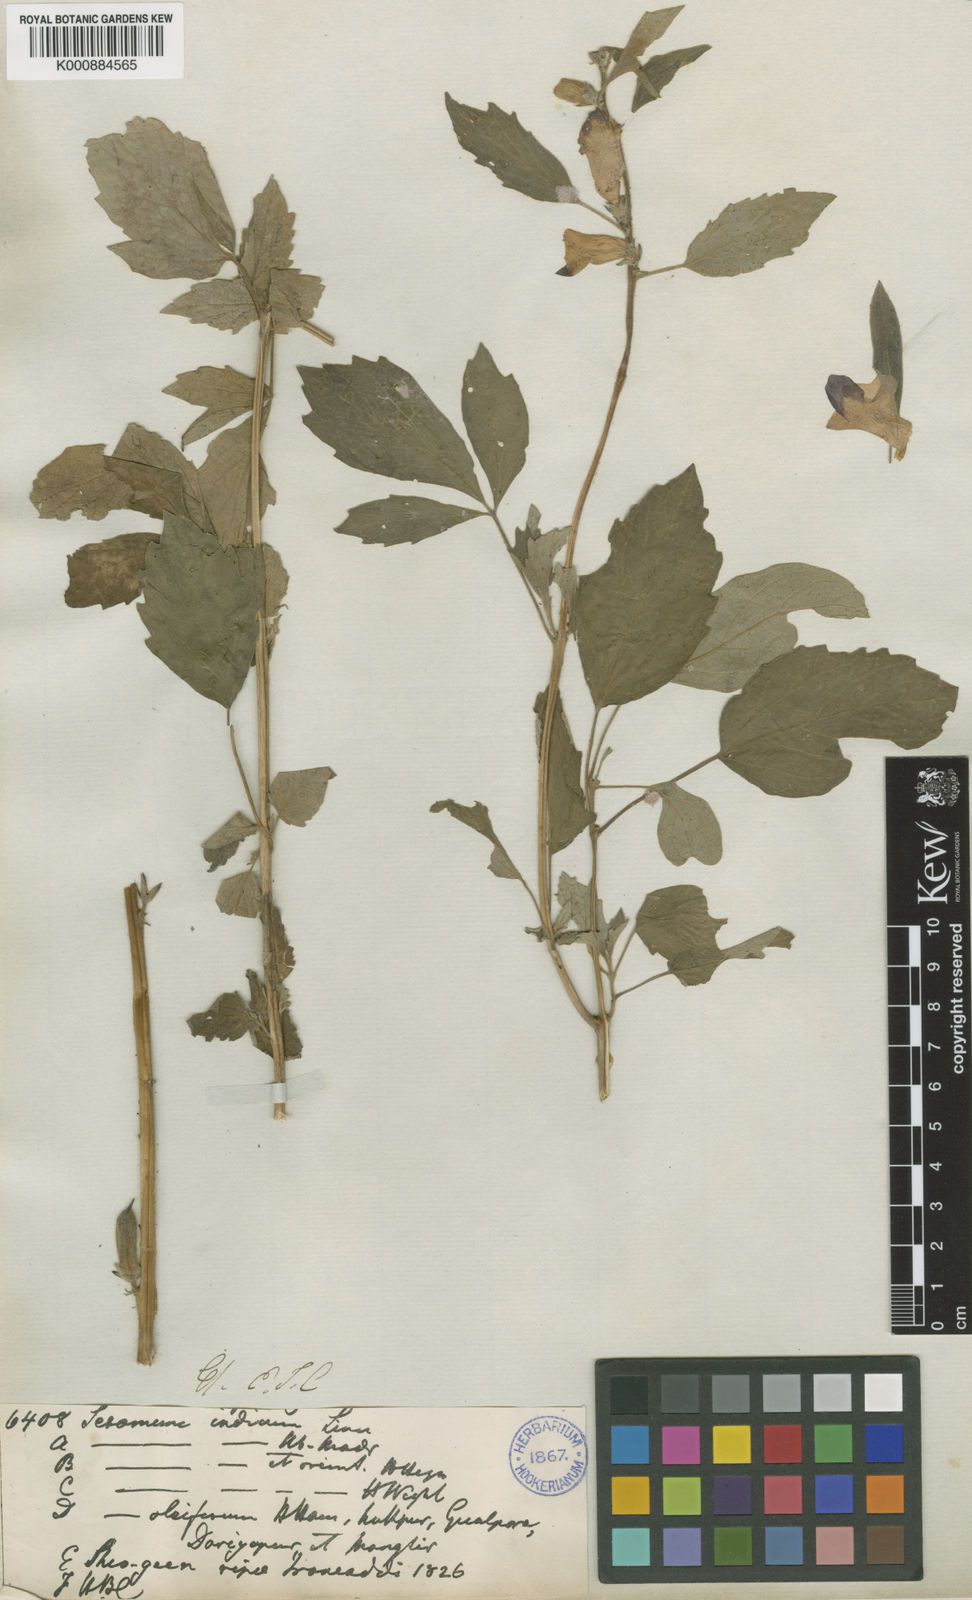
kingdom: Plantae
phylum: Tracheophyta
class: Magnoliopsida
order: Lamiales
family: Pedaliaceae
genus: Sesamum
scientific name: Sesamum indicum
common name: Sesame
